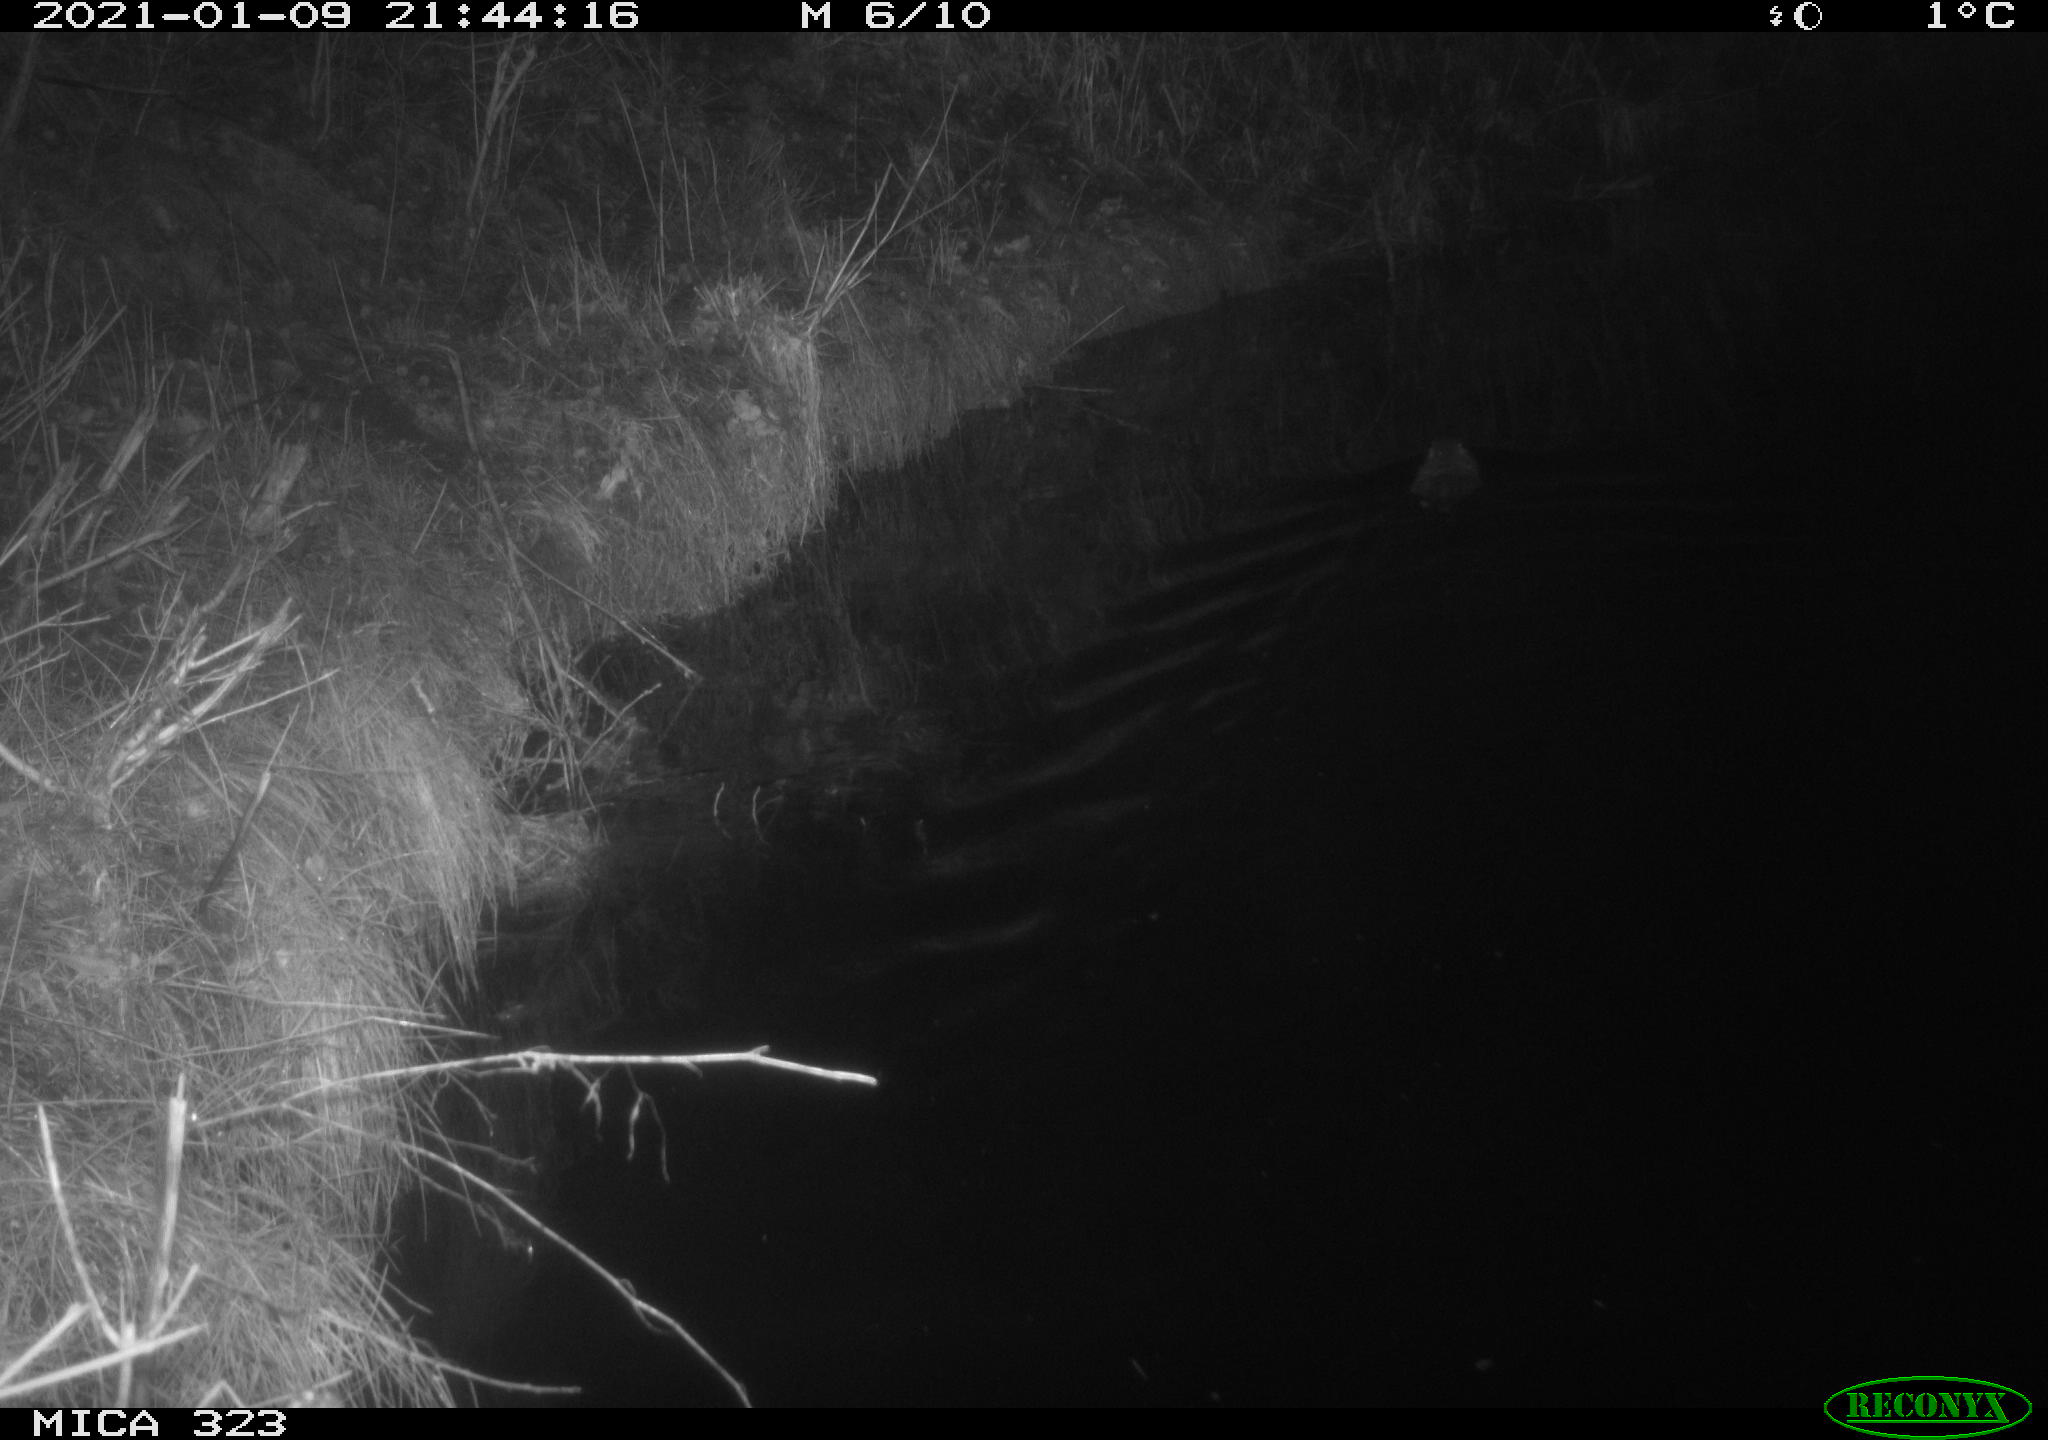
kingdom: Animalia
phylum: Chordata
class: Mammalia
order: Rodentia
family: Myocastoridae
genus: Myocastor
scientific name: Myocastor coypus
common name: Coypu
